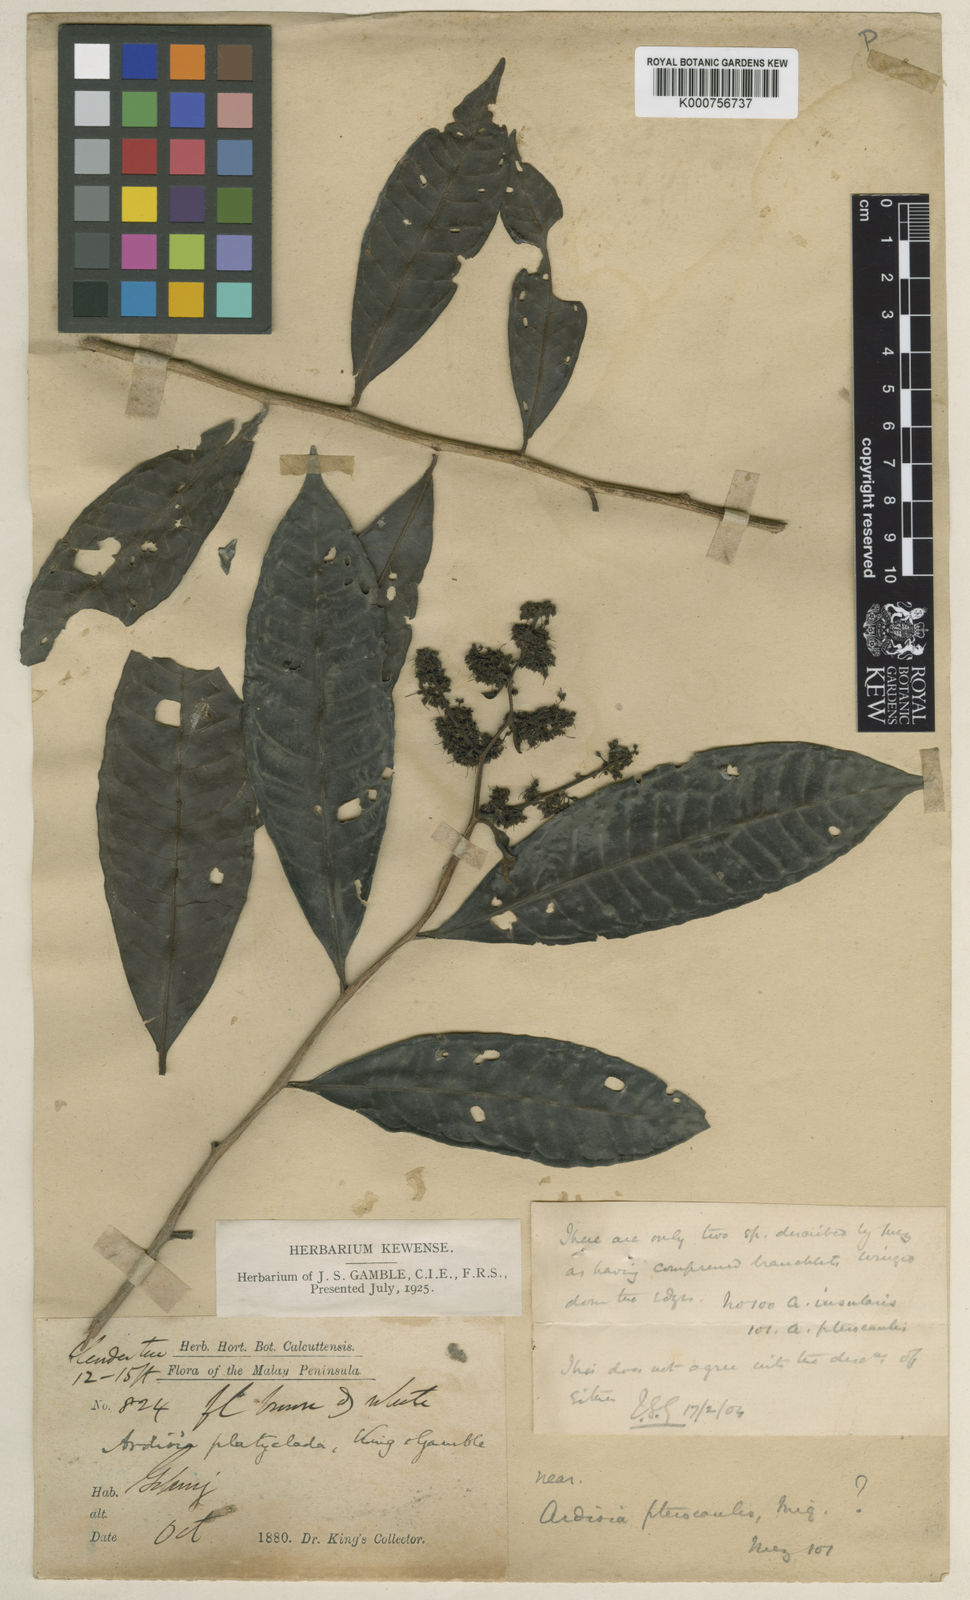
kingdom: Plantae
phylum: Tracheophyta
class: Magnoliopsida
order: Ericales
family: Primulaceae
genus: Ardisia
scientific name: Ardisia pterocaulis
